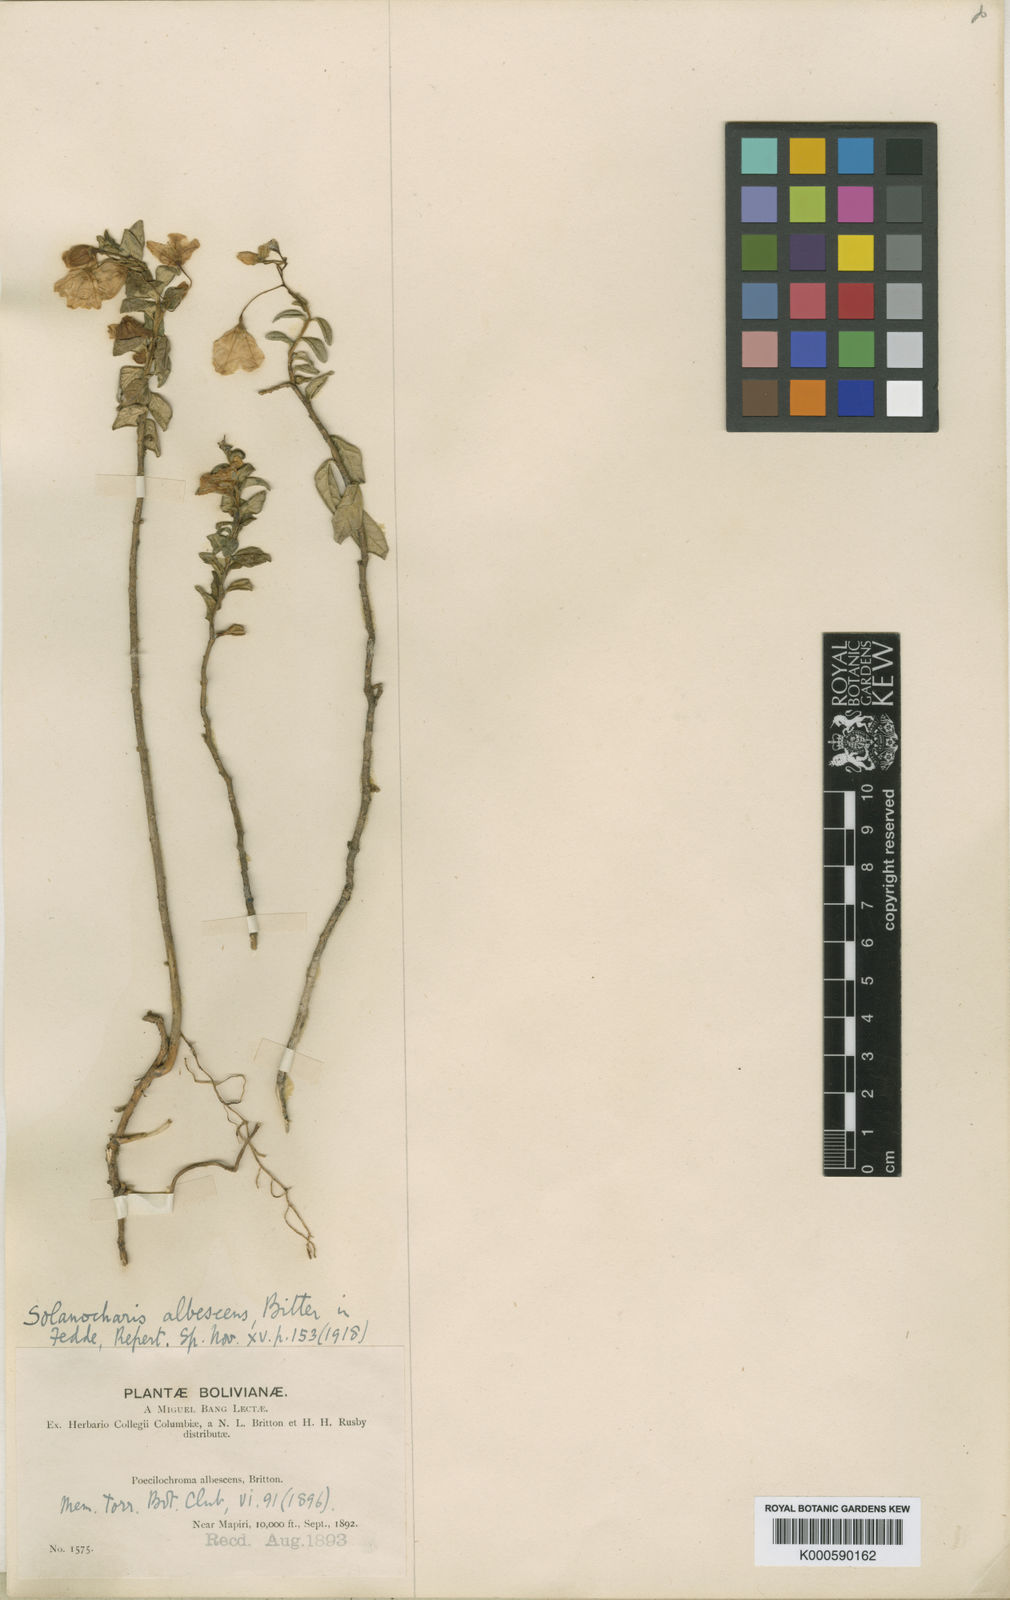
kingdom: Plantae
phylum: Tracheophyta
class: Magnoliopsida
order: Solanales
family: Solanaceae
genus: Solanum
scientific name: Solanum albescens
